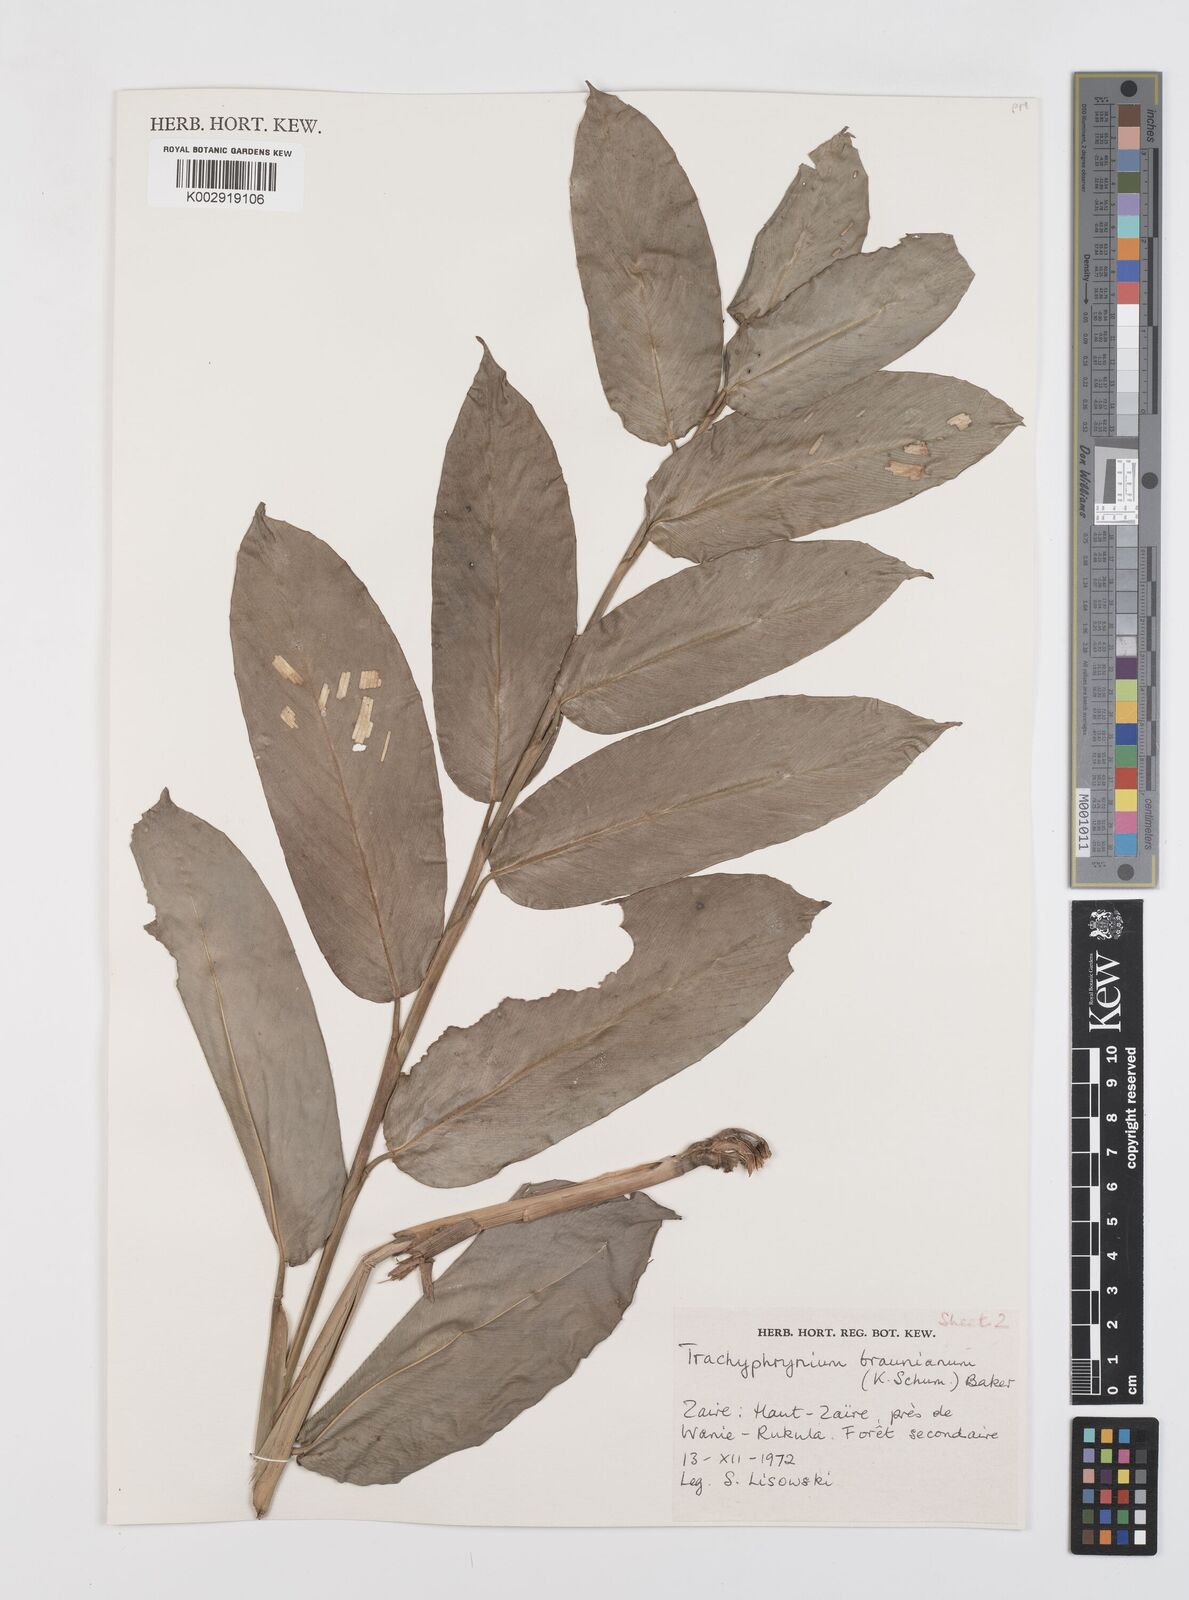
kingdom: Plantae
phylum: Tracheophyta
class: Liliopsida
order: Zingiberales
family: Marantaceae
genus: Trachyphrynium
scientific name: Trachyphrynium braunianum
